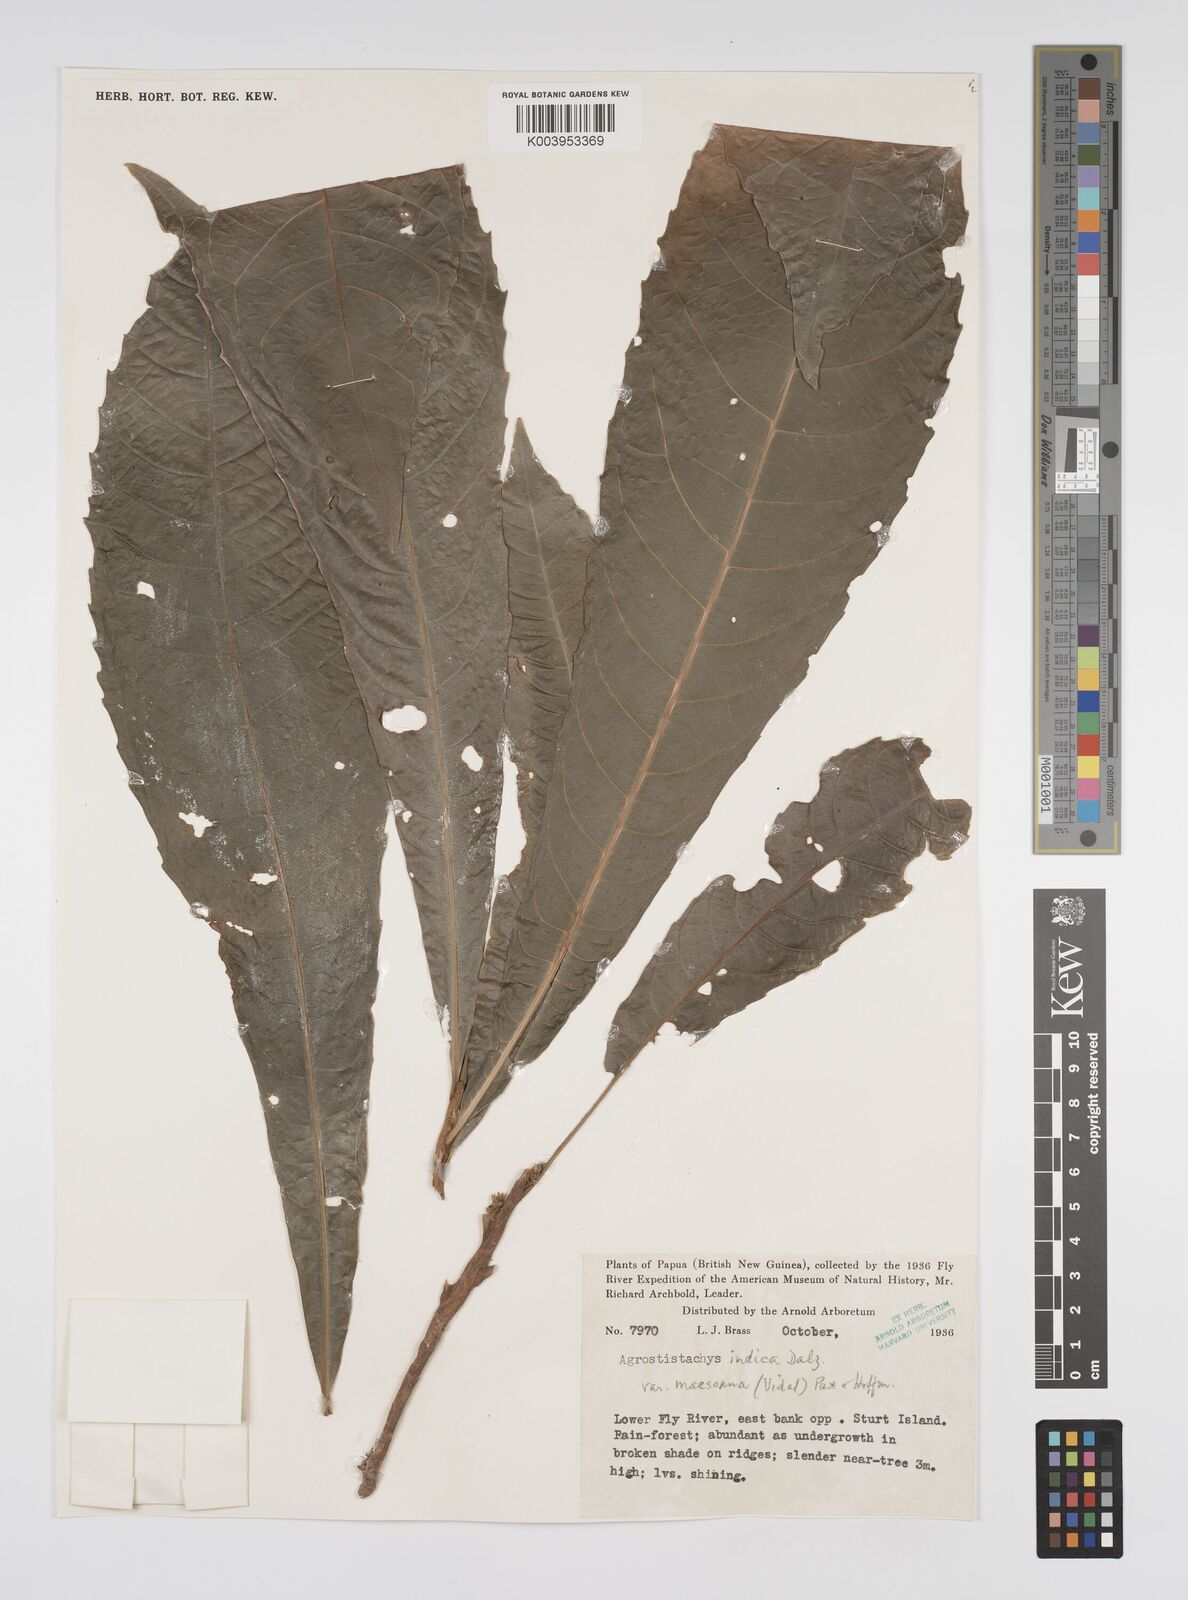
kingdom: Plantae
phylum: Tracheophyta
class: Magnoliopsida
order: Malpighiales
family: Euphorbiaceae
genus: Agrostistachys
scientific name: Agrostistachys indica
